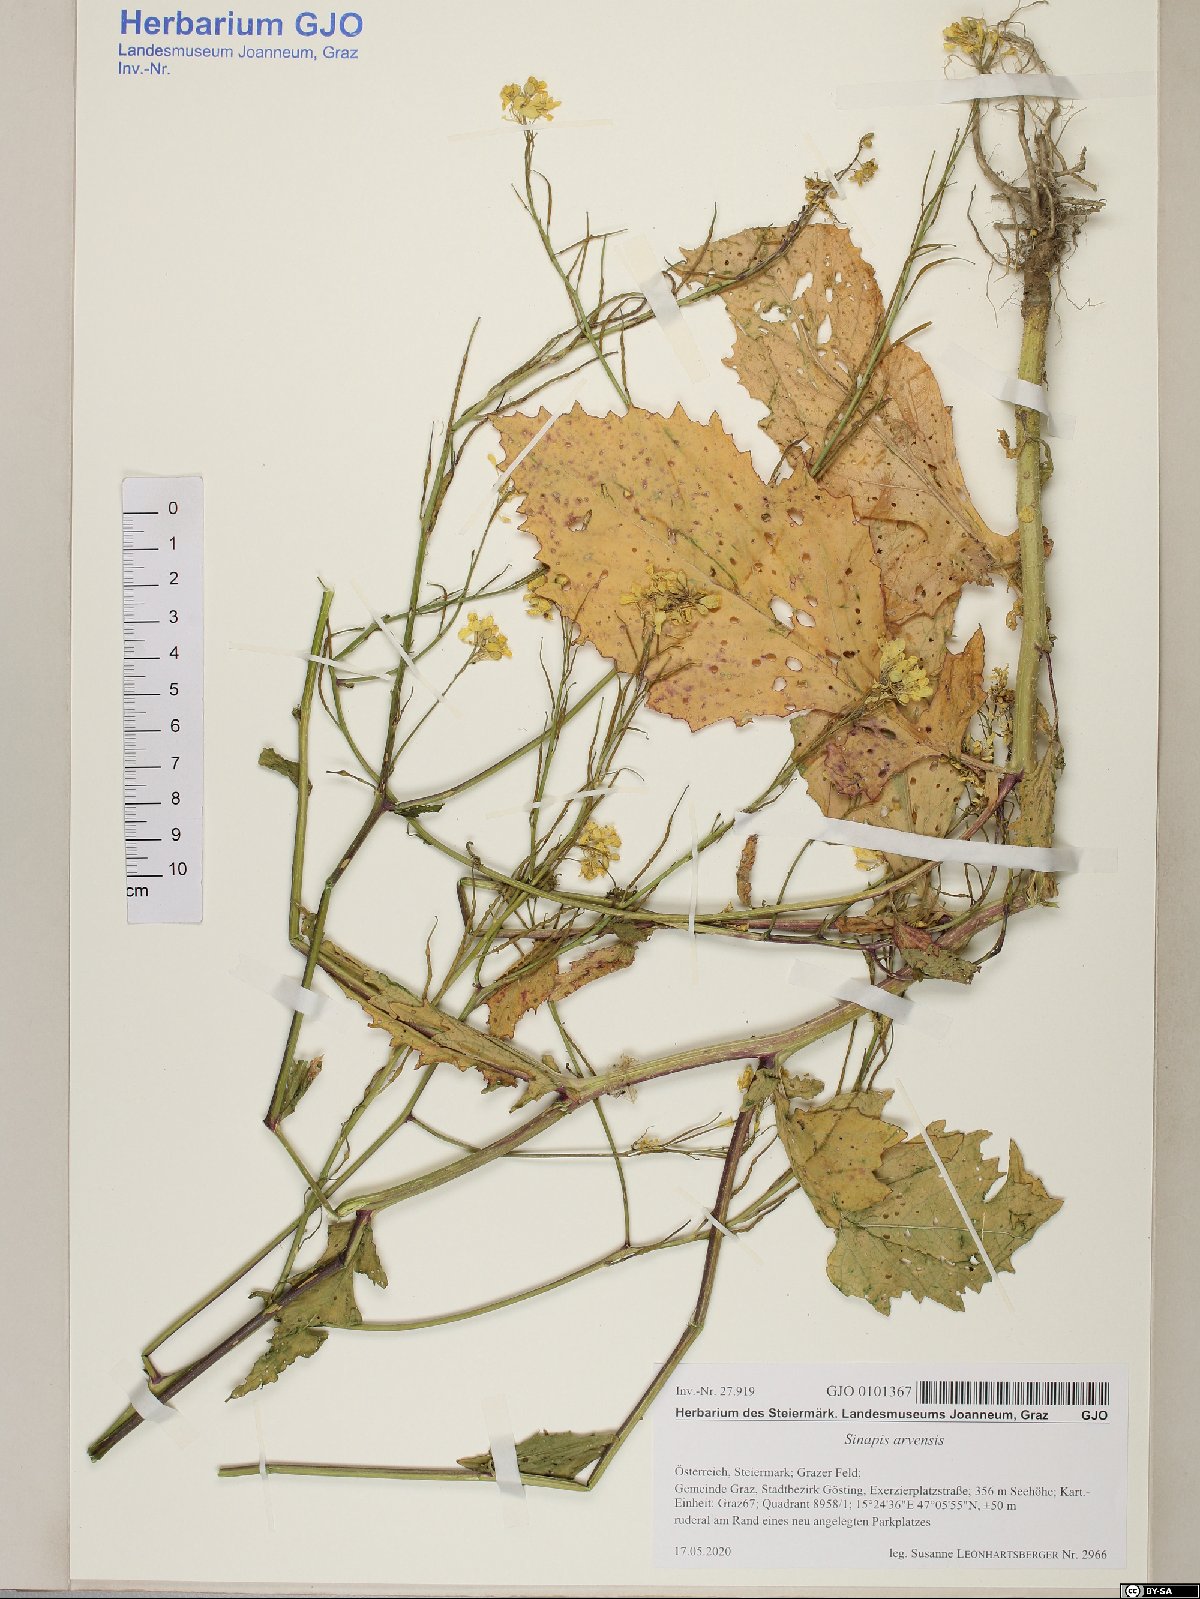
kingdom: Plantae
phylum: Tracheophyta
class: Magnoliopsida
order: Brassicales
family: Brassicaceae
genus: Sinapis
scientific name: Sinapis arvensis
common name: Charlock
